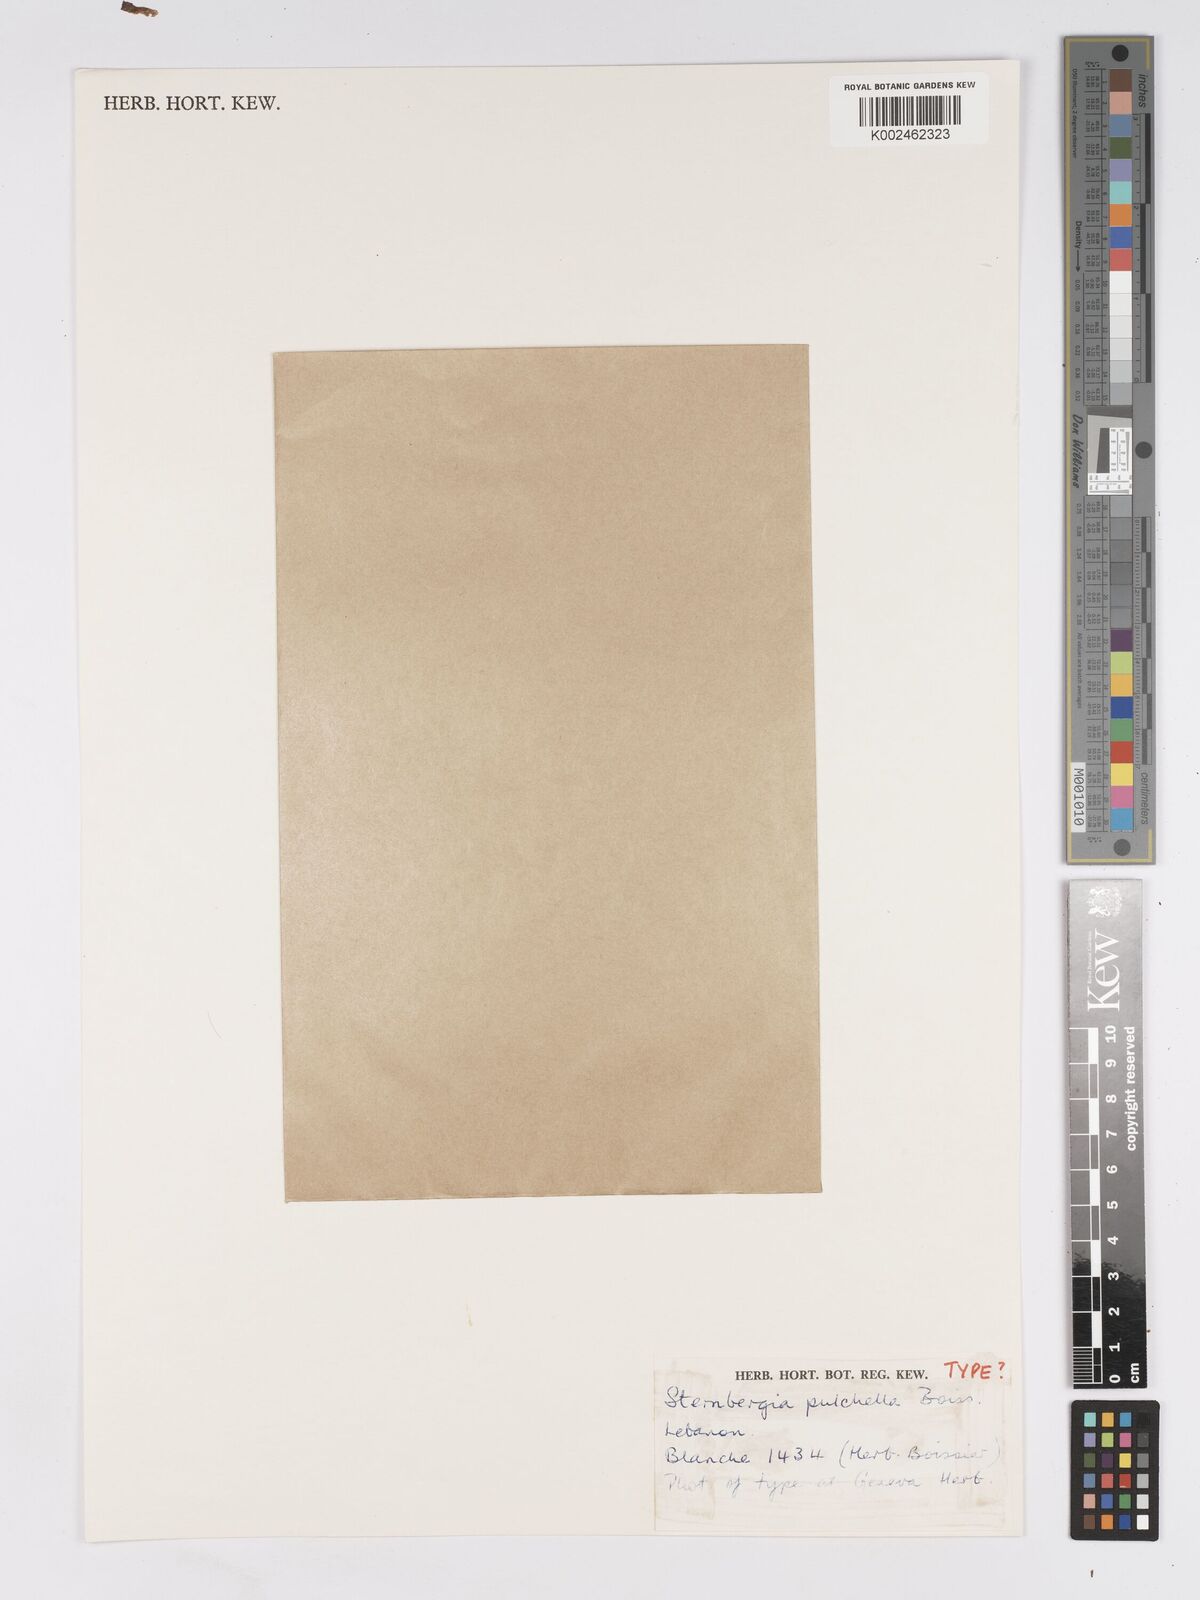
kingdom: Plantae
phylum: Tracheophyta
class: Liliopsida
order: Asparagales
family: Amaryllidaceae
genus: Sternbergia
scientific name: Sternbergia pulchella
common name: Pretty sternbergia
